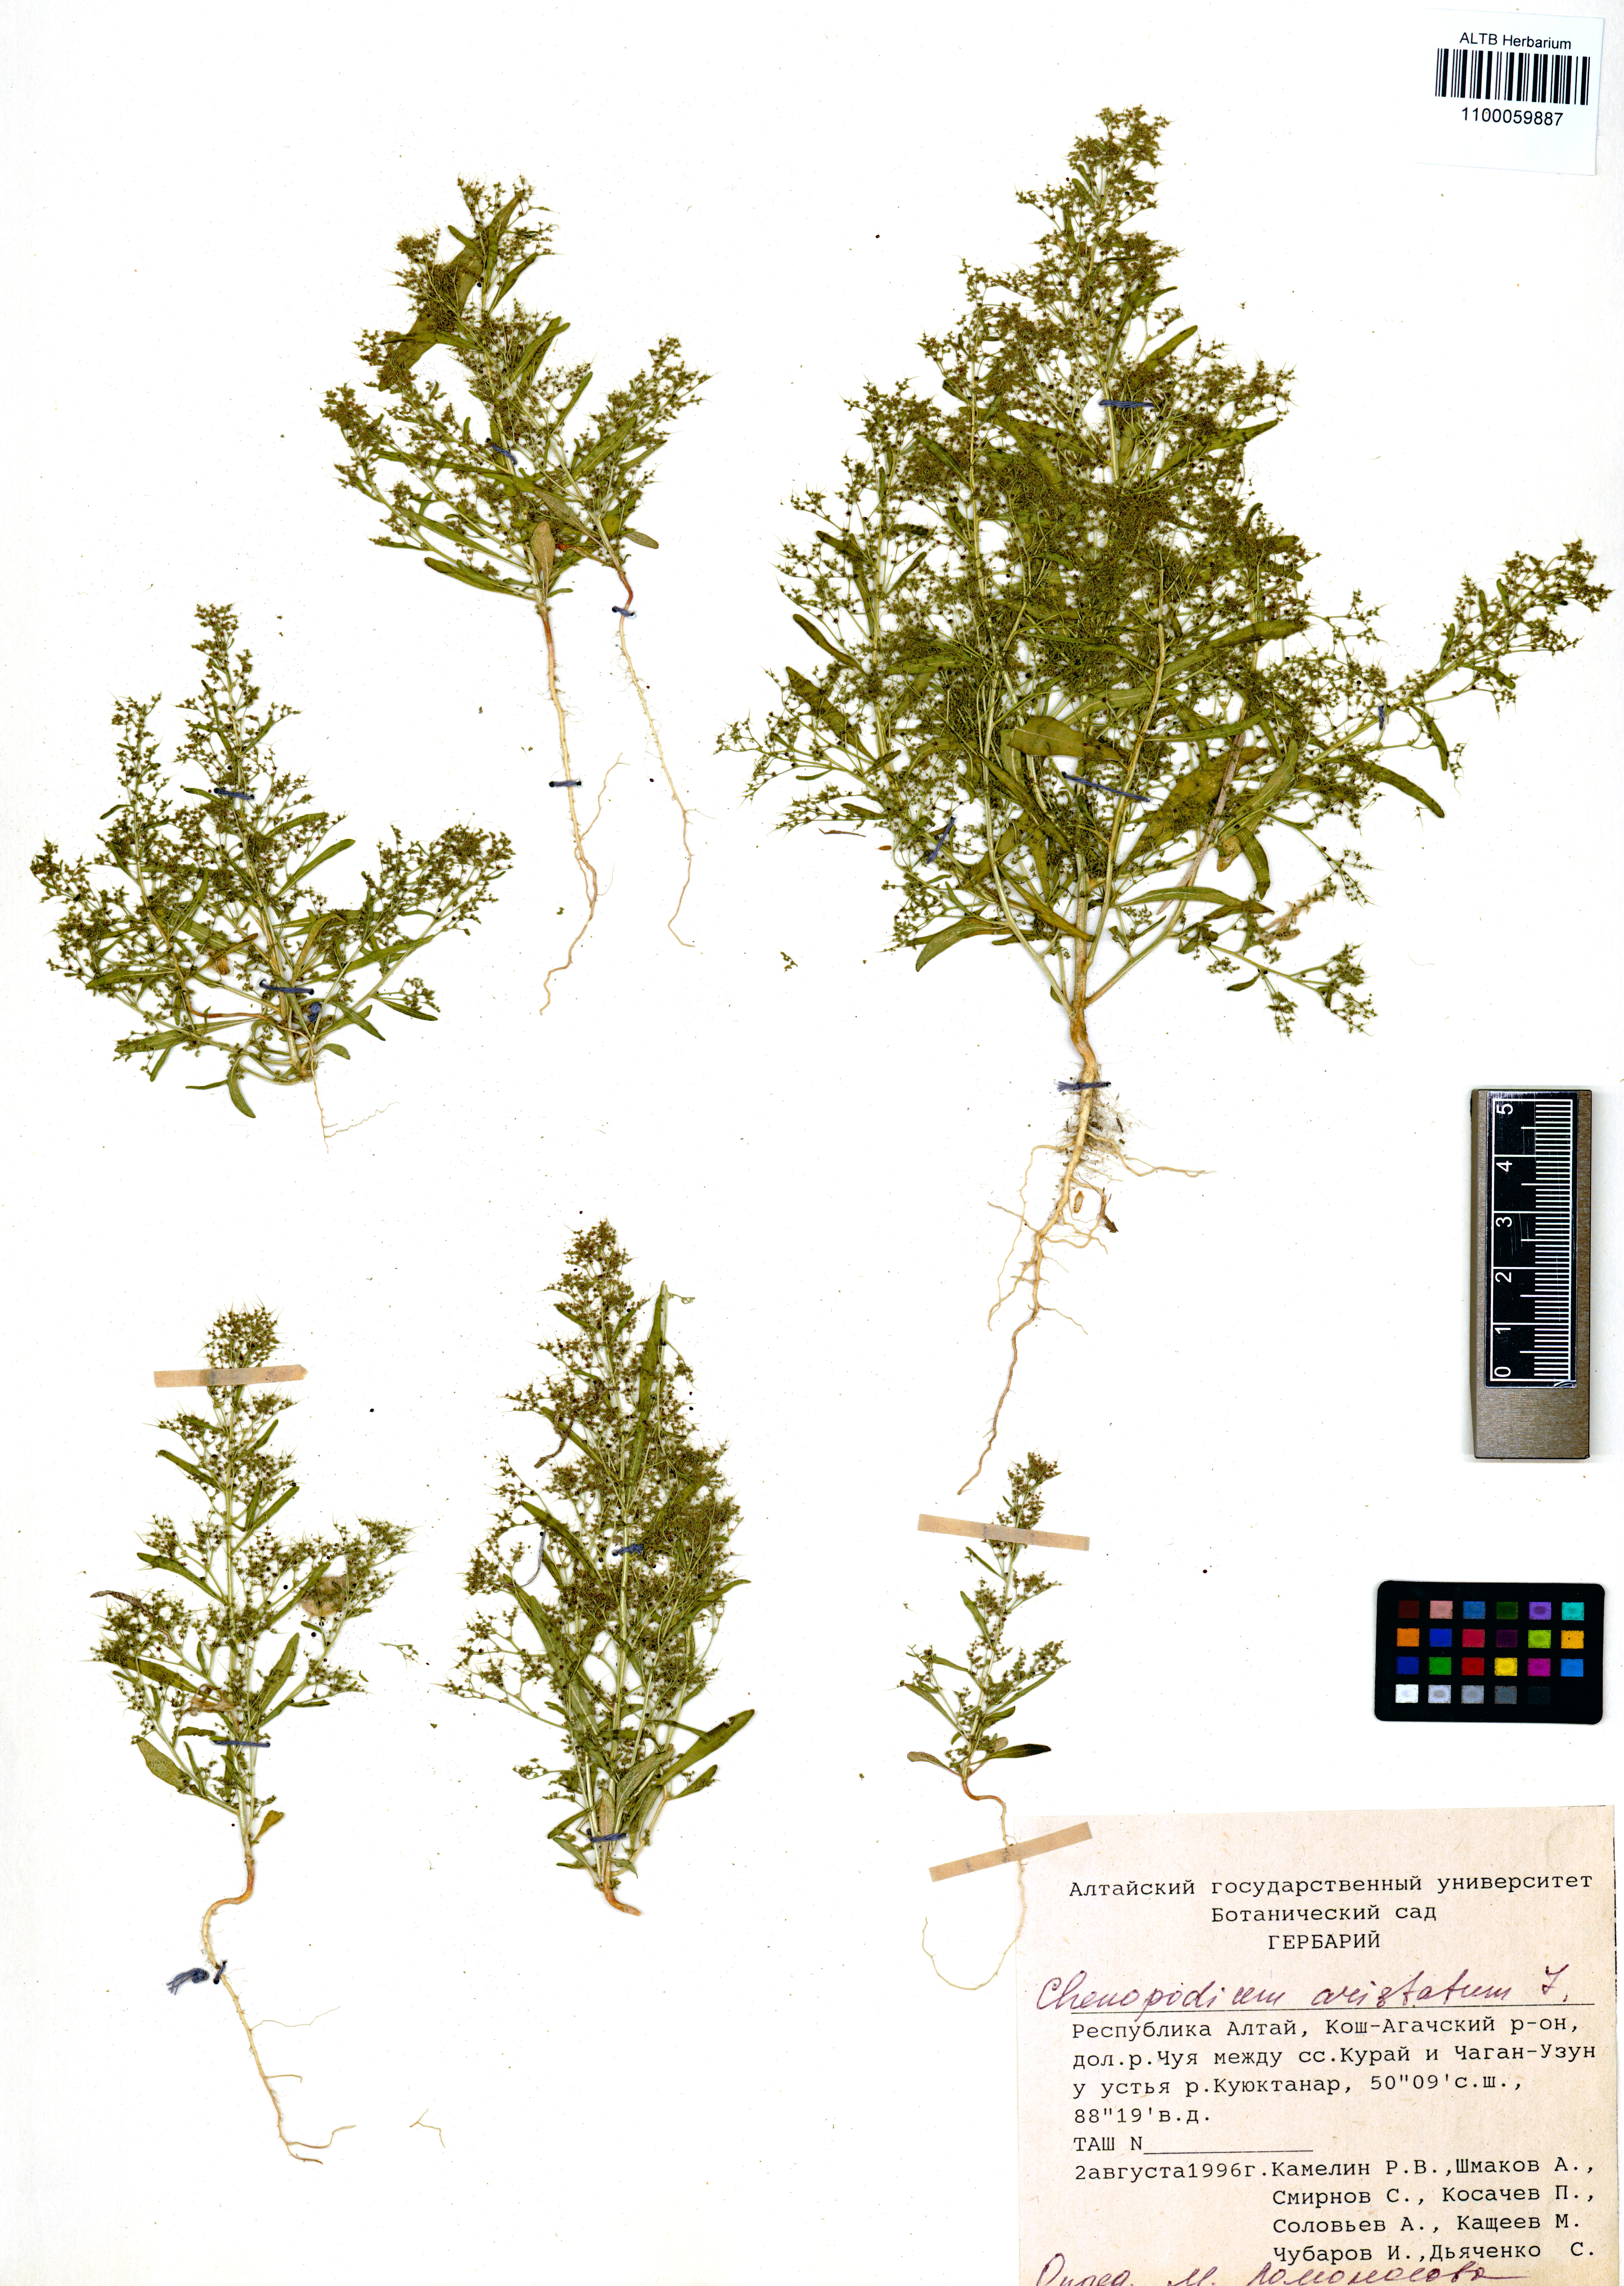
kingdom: Plantae
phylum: Tracheophyta
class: Magnoliopsida
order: Caryophyllales
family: Amaranthaceae
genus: Teloxys
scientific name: Teloxys aristata
